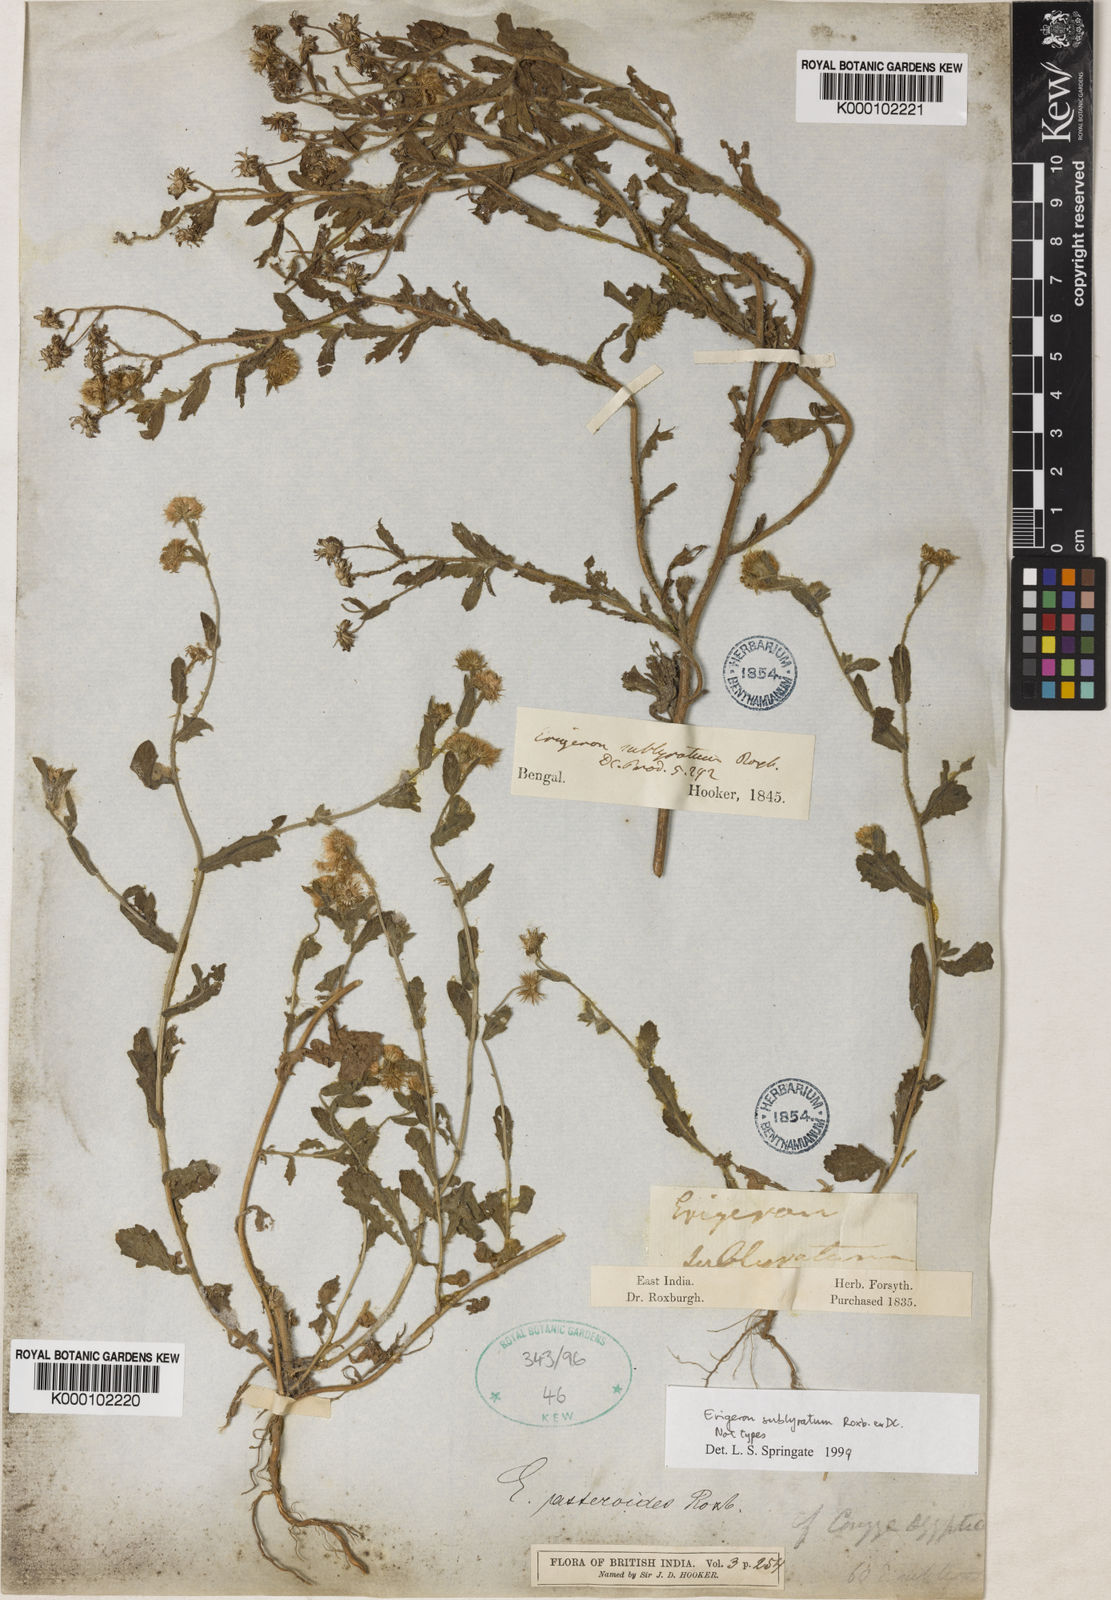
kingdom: Plantae
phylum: Tracheophyta
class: Magnoliopsida
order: Asterales
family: Asteraceae
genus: Blumea
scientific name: Blumea obliqua
